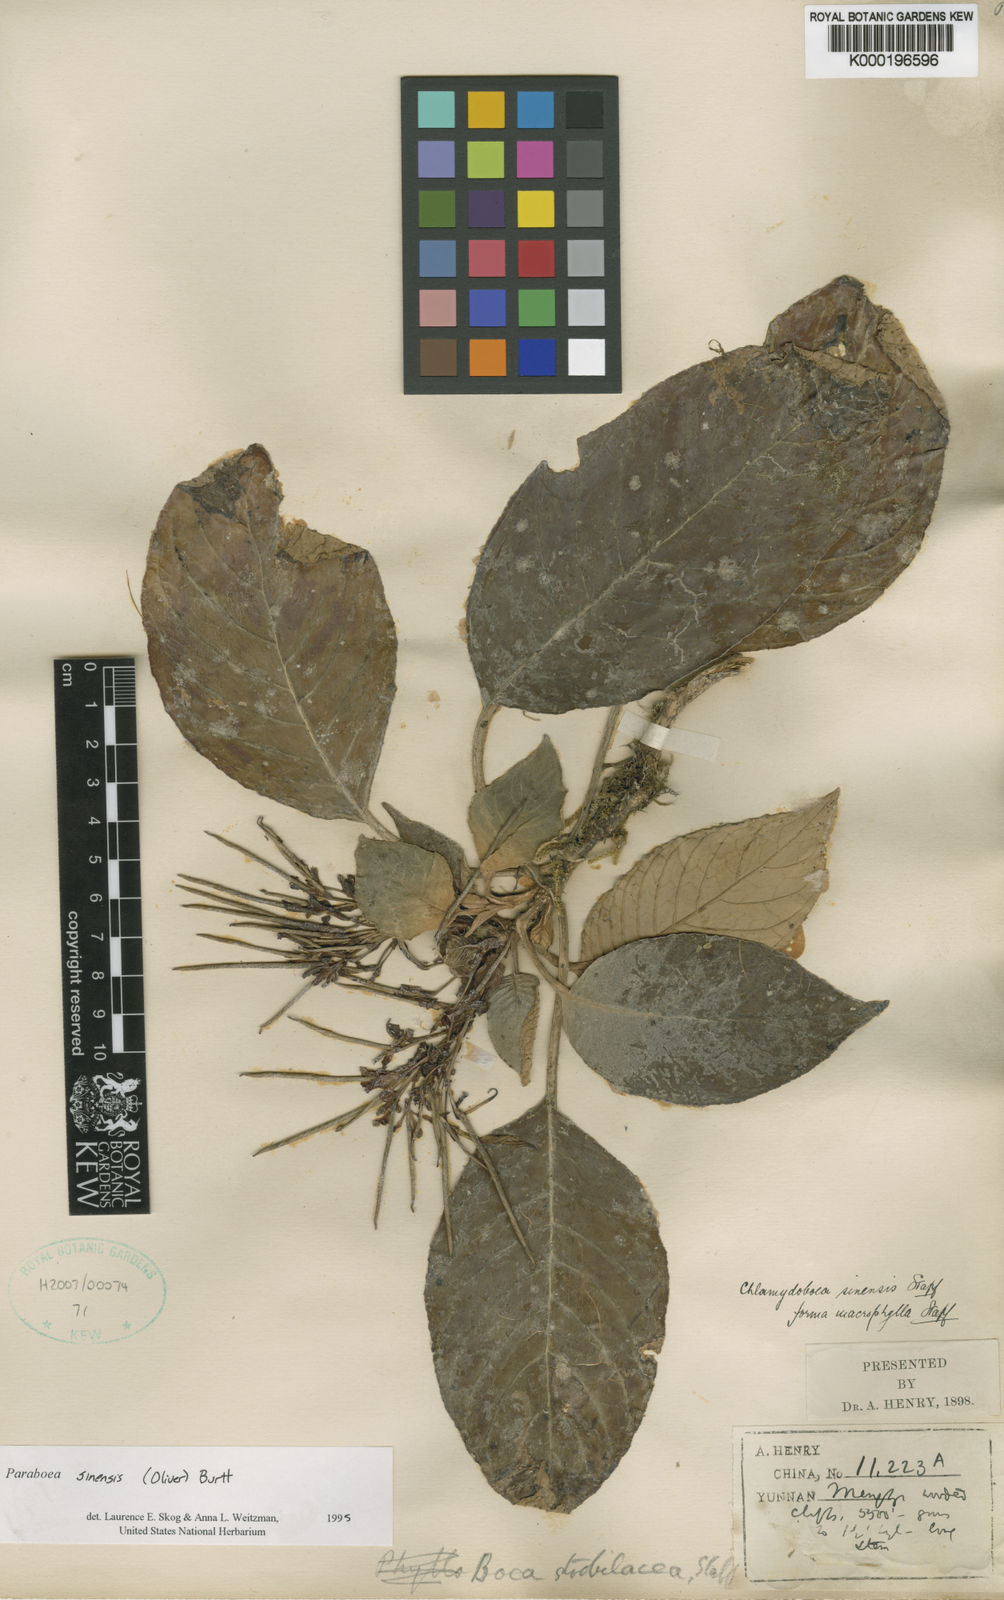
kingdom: Plantae
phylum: Tracheophyta
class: Magnoliopsida
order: Lamiales
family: Gesneriaceae
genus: Paraboea
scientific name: Paraboea sinensis
